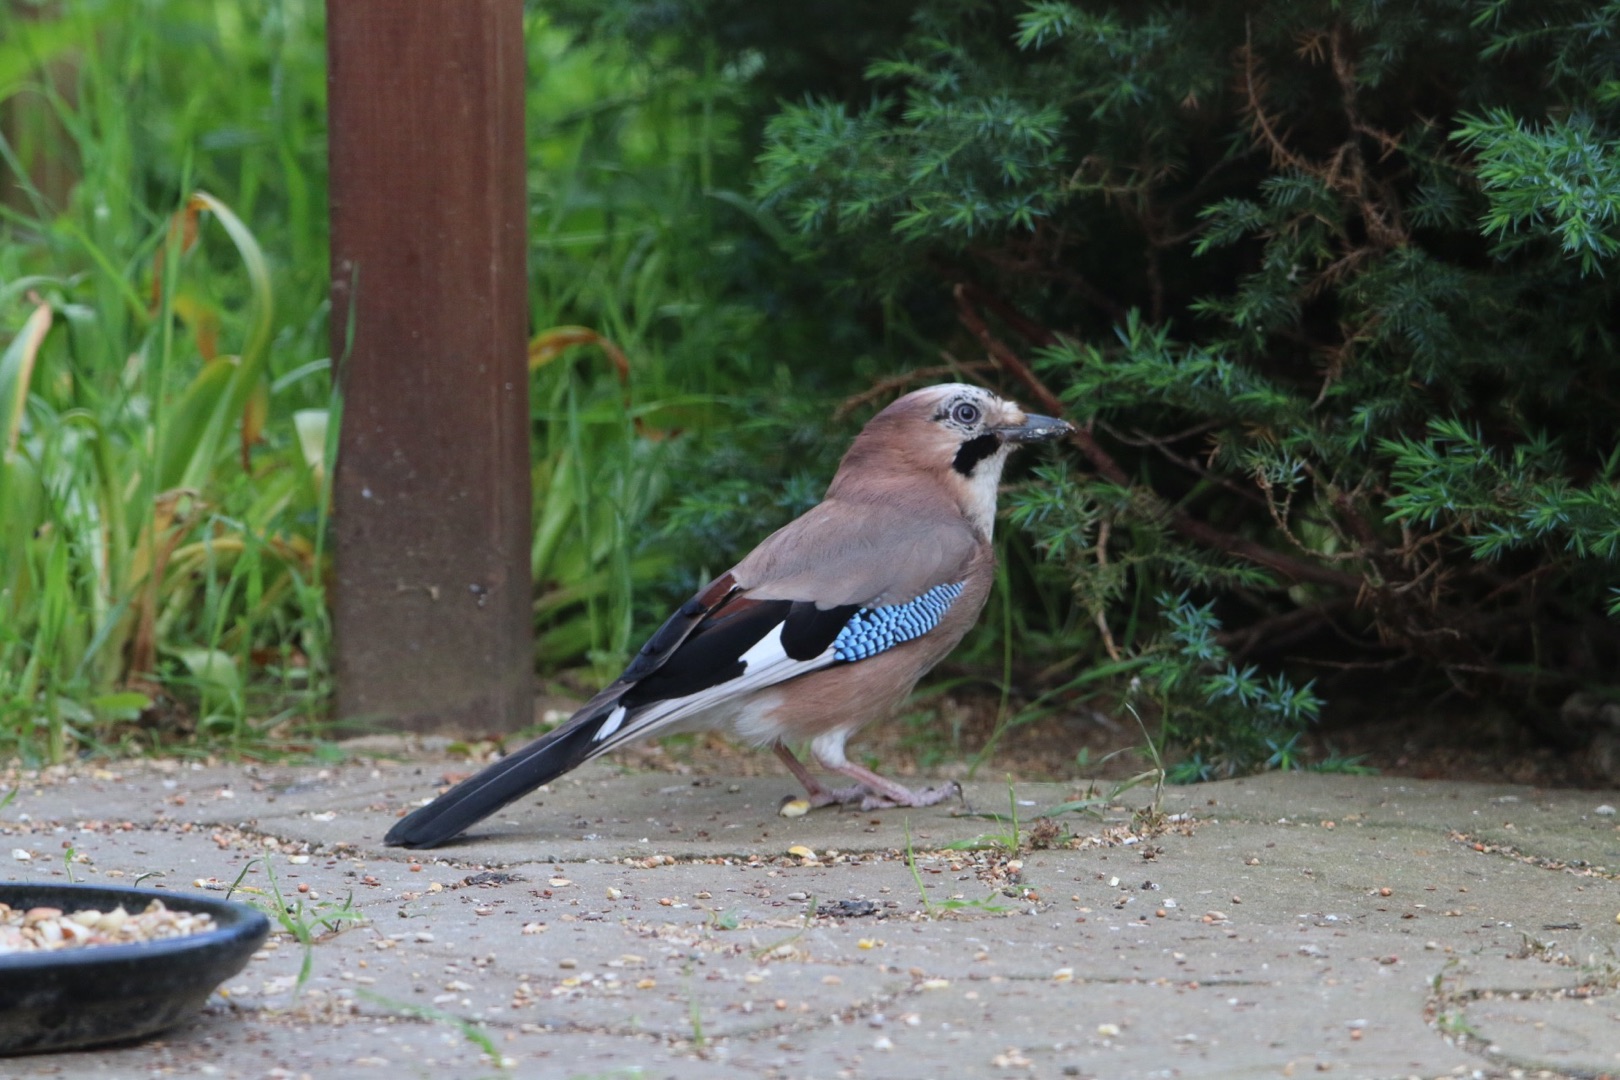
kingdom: Animalia
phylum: Chordata
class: Aves
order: Passeriformes
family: Corvidae
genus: Garrulus
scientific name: Garrulus glandarius
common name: Skovskade
